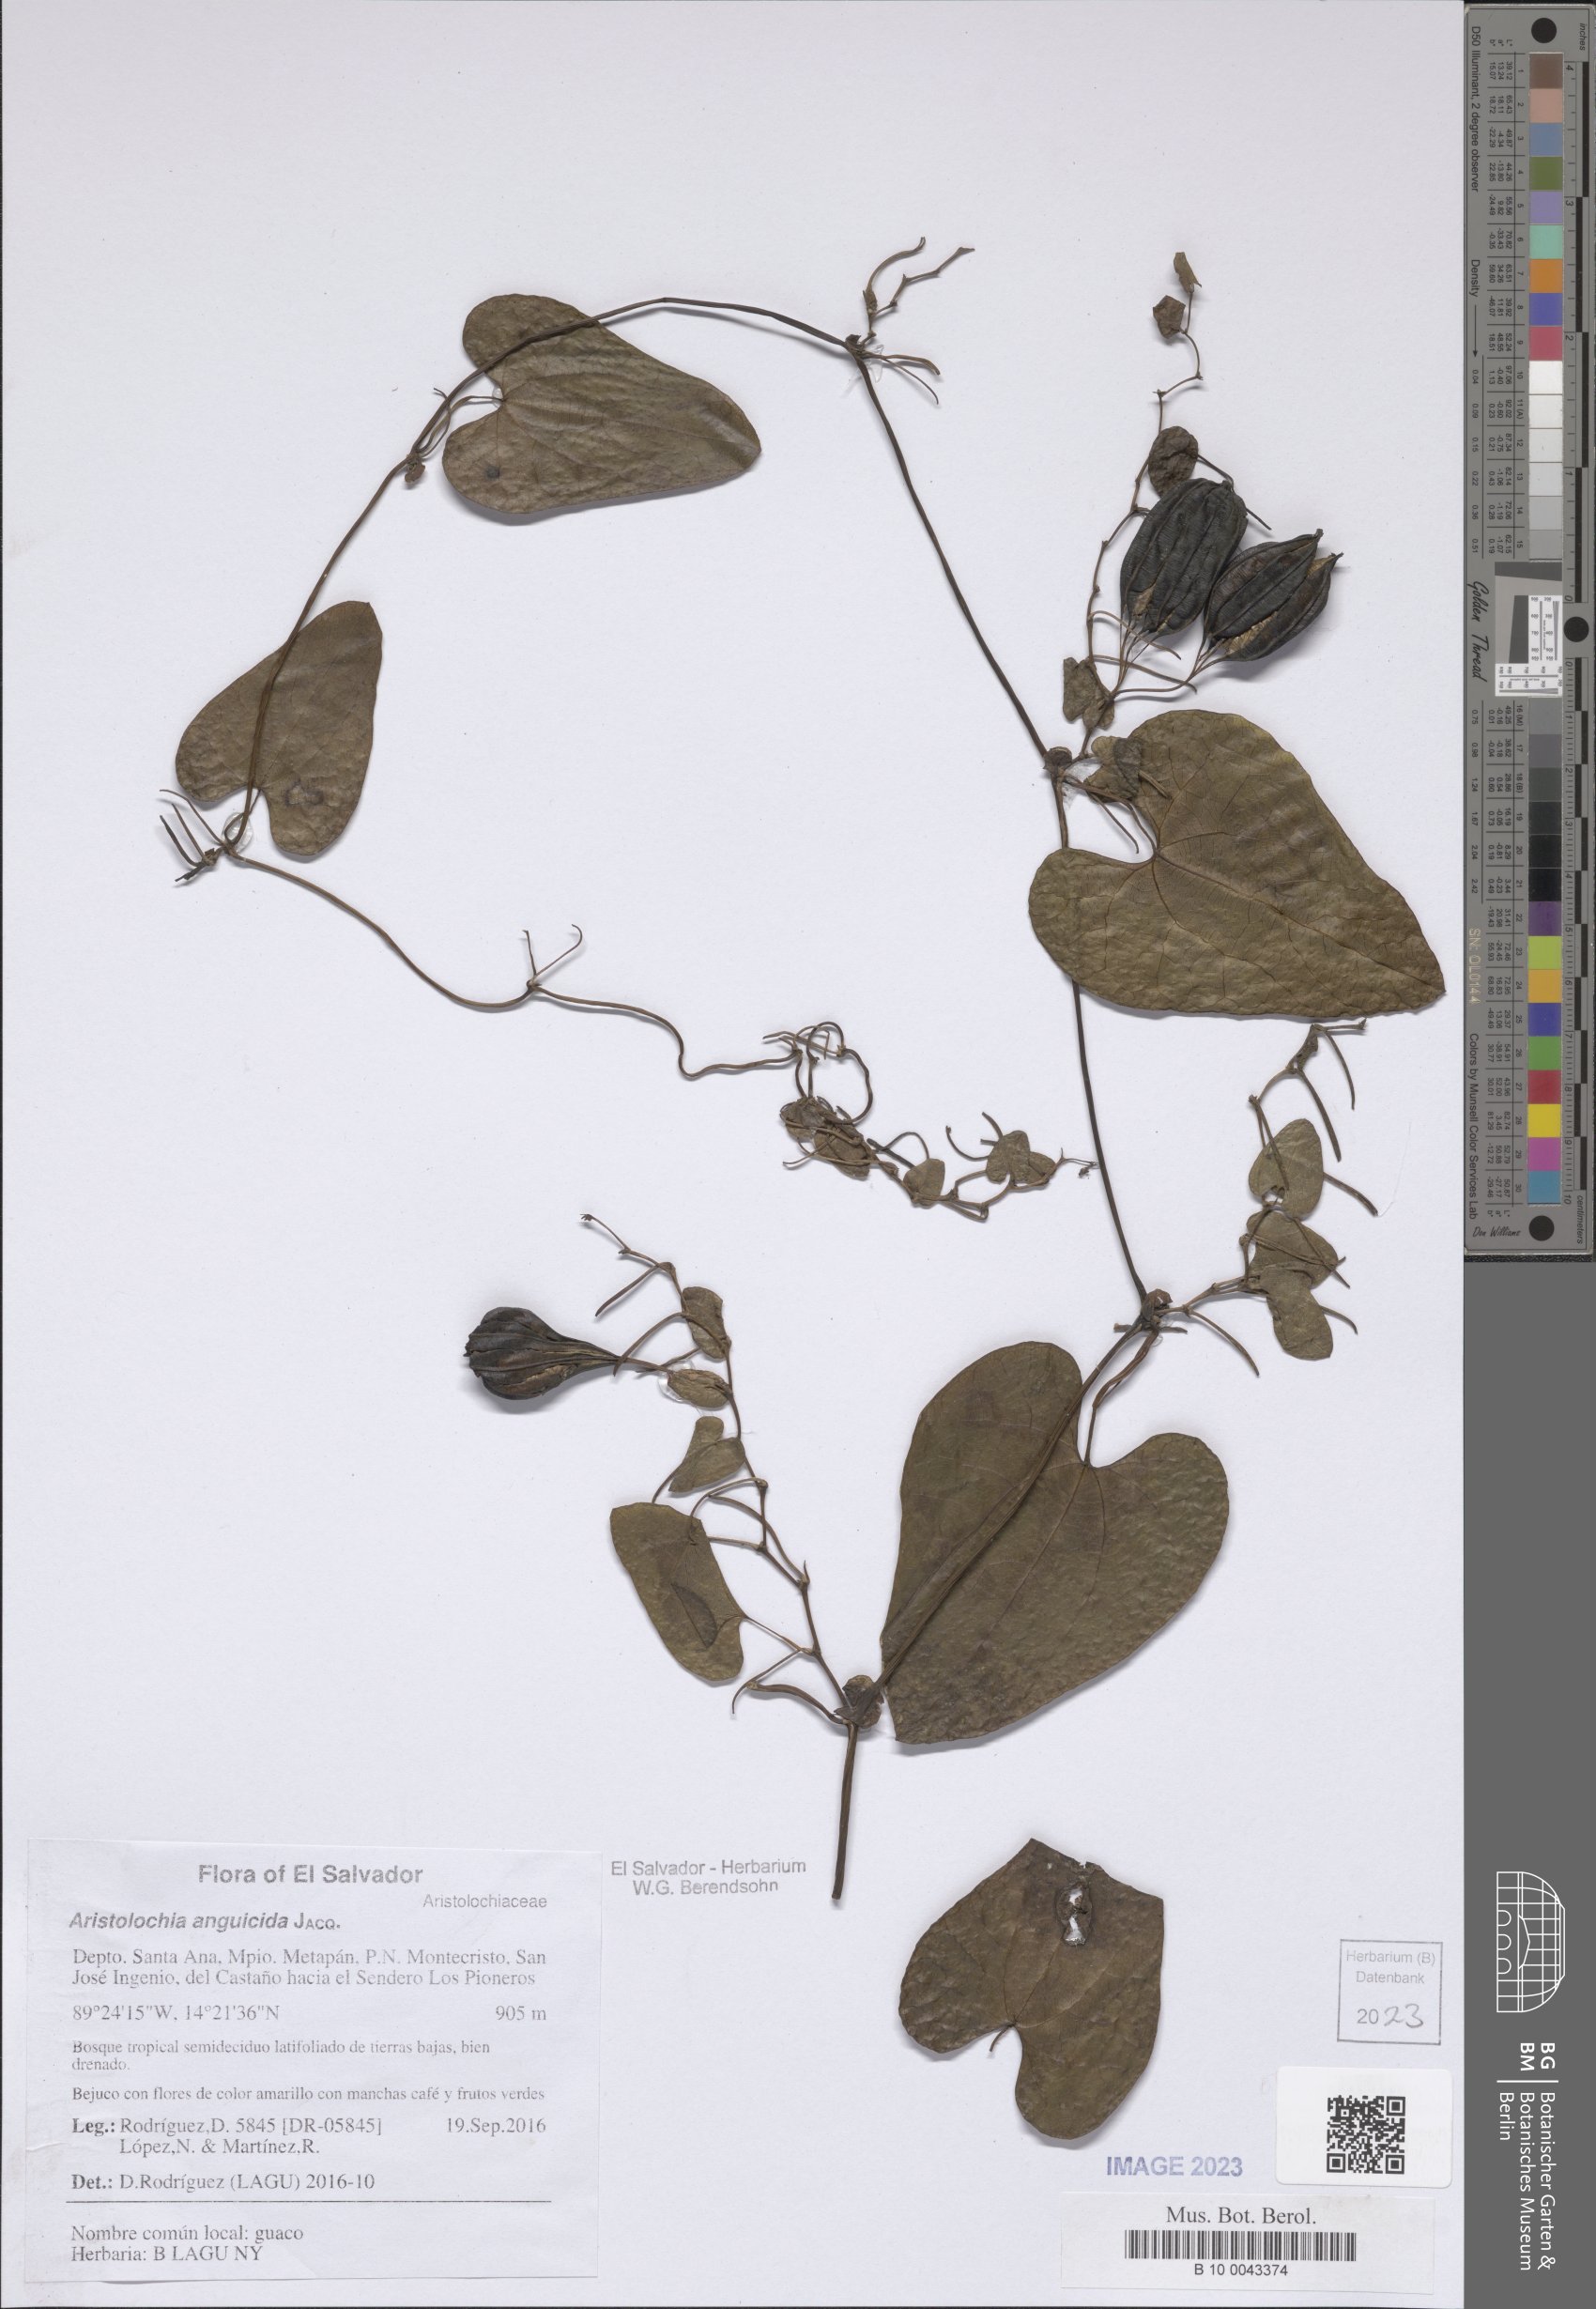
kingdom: Plantae
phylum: Tracheophyta
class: Magnoliopsida
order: Piperales
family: Aristolochiaceae
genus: Aristolochia
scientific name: Aristolochia anguicida
